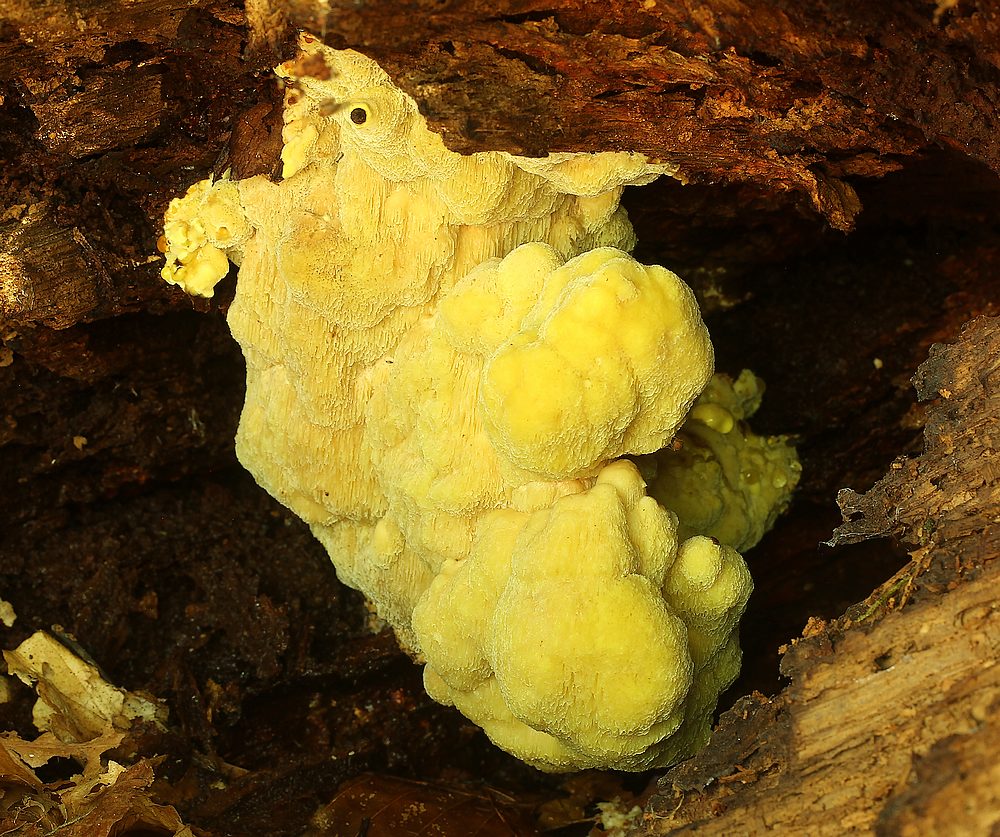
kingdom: Fungi
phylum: Basidiomycota
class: Agaricomycetes
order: Polyporales
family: Laetiporaceae
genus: Laetiporus
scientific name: Laetiporus sulphureus
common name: svovlporesvamp
